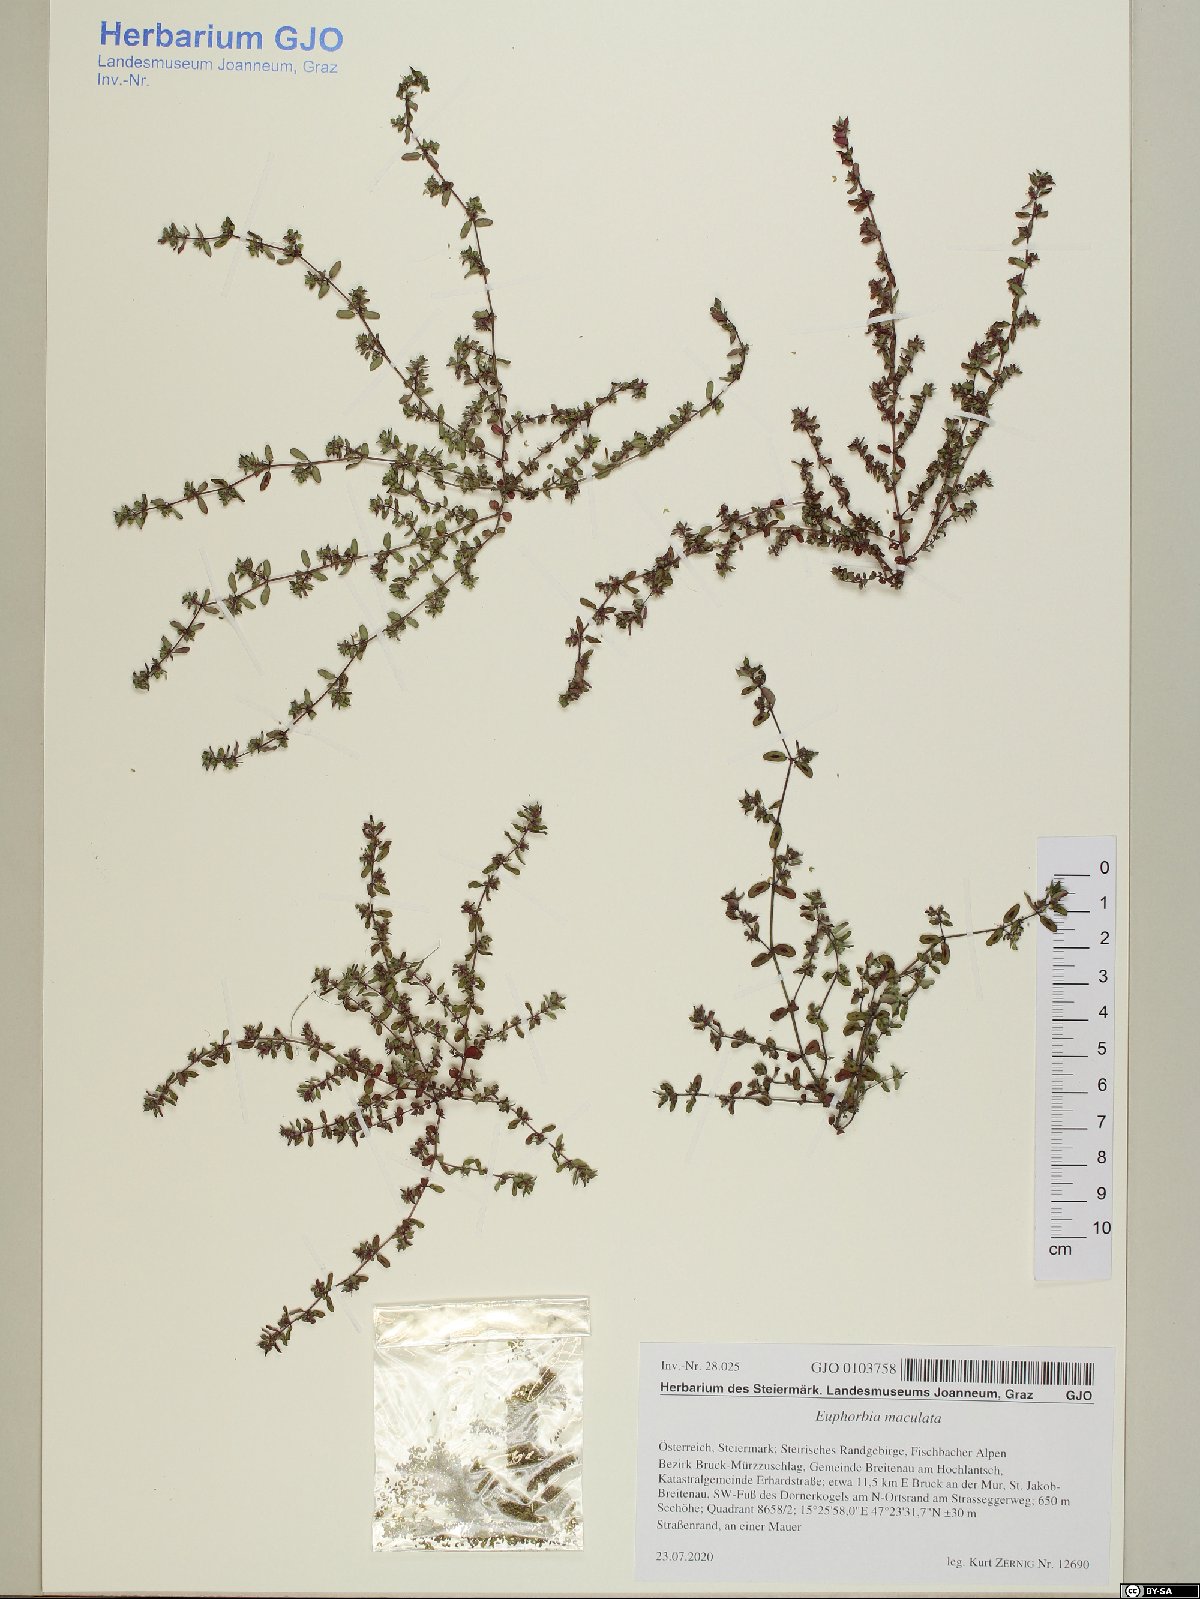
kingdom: Plantae
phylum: Tracheophyta
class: Magnoliopsida
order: Malpighiales
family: Euphorbiaceae
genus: Euphorbia
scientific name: Euphorbia maculata
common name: Spotted spurge
